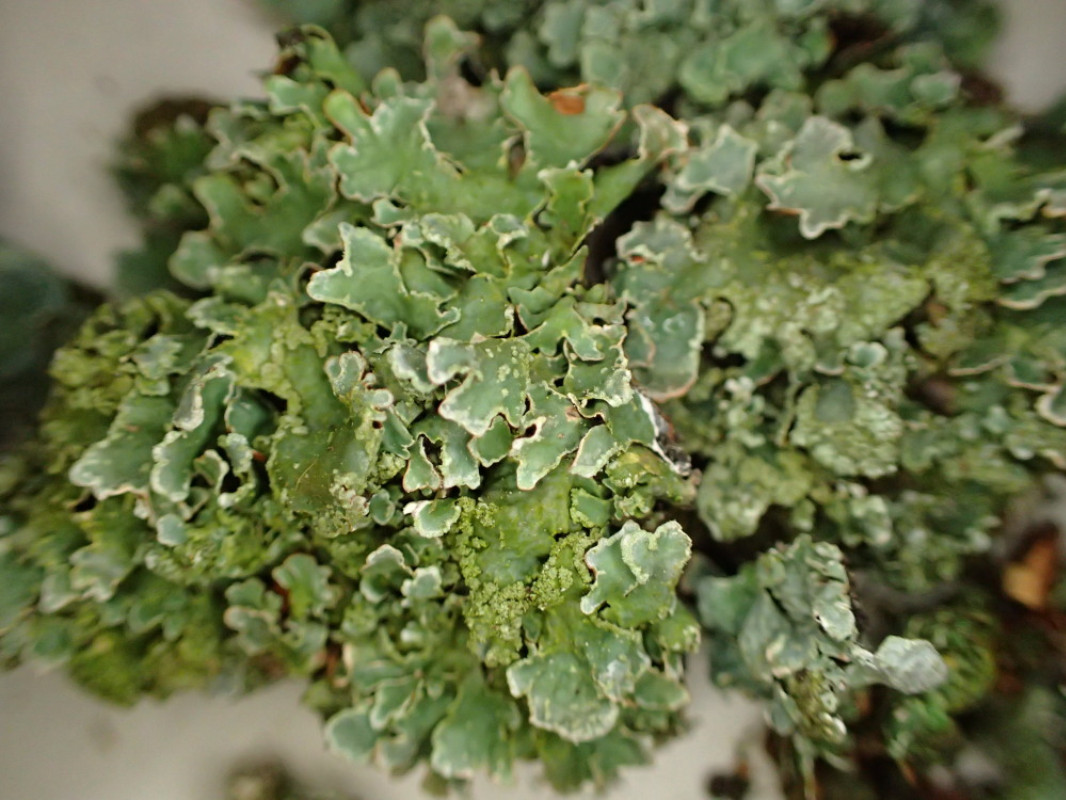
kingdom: Fungi
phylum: Ascomycota
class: Lecanoromycetes
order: Lecanorales
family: Parmeliaceae
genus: Parmelia
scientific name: Parmelia sulcata
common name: rynket skållav
